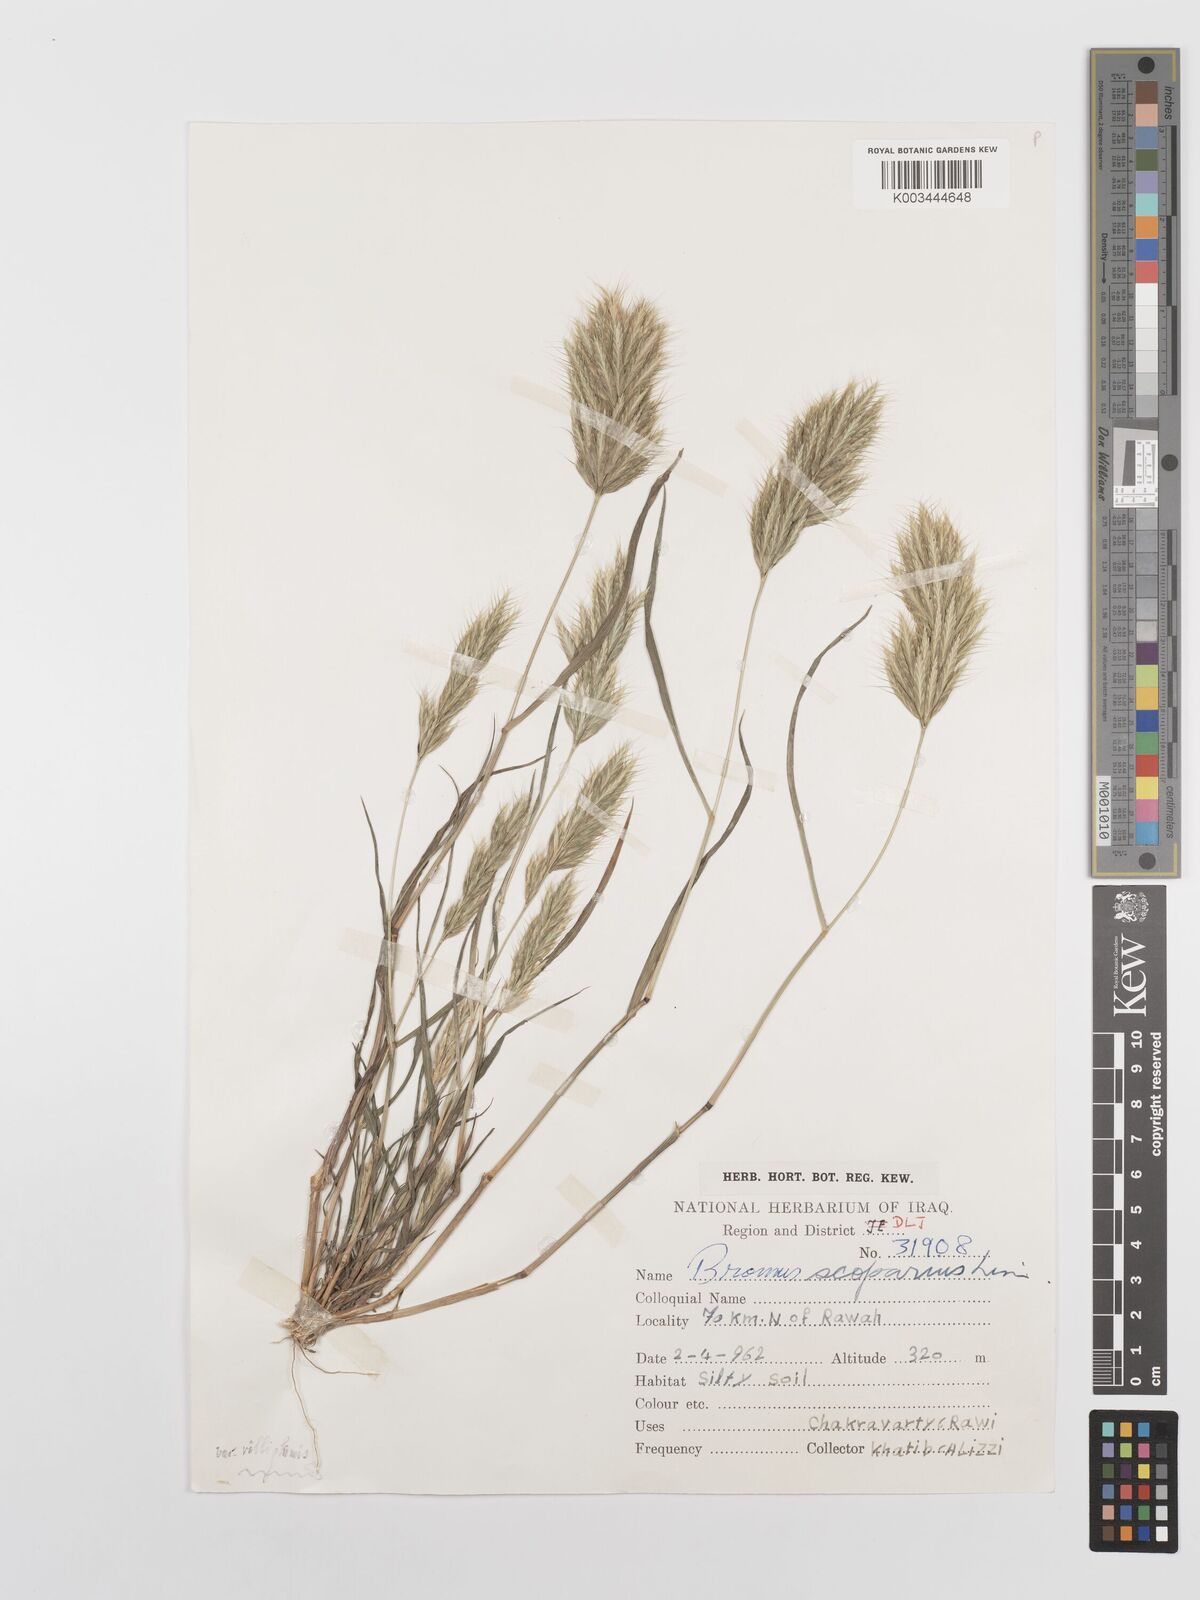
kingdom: Plantae
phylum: Tracheophyta
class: Liliopsida
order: Poales
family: Poaceae
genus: Bromus
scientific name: Bromus scoparius
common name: Broom brome
